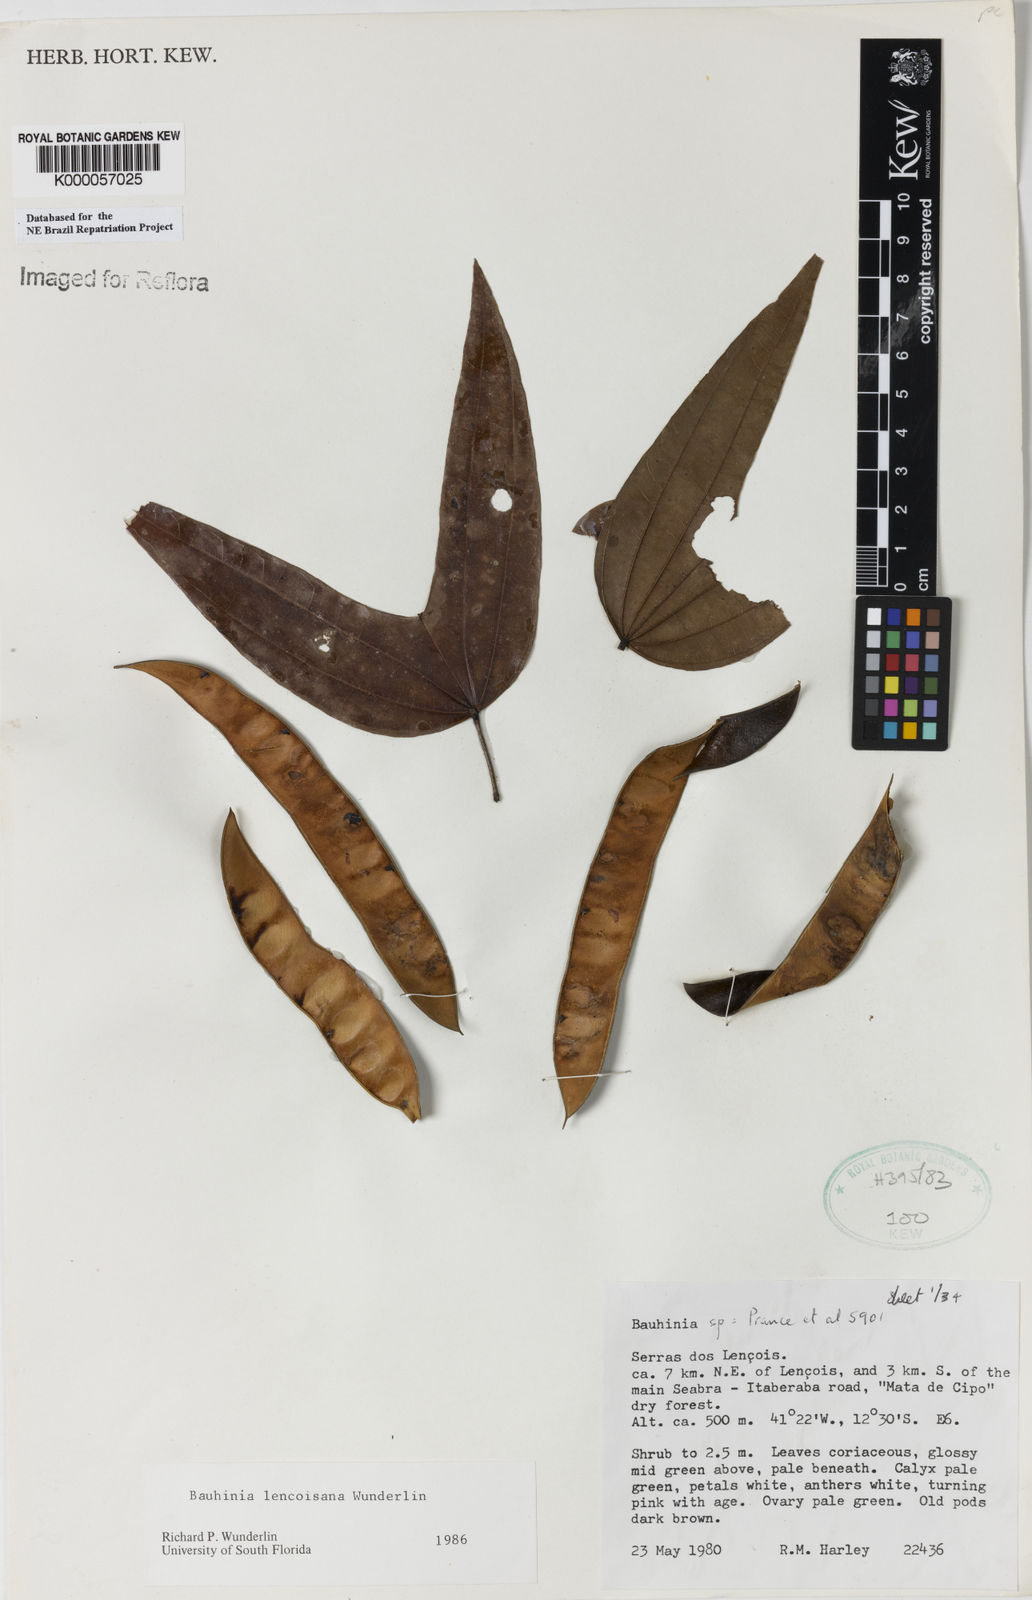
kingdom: Plantae
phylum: Tracheophyta
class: Magnoliopsida
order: Fabales
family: Fabaceae
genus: Bauhinia
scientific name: Bauhinia
